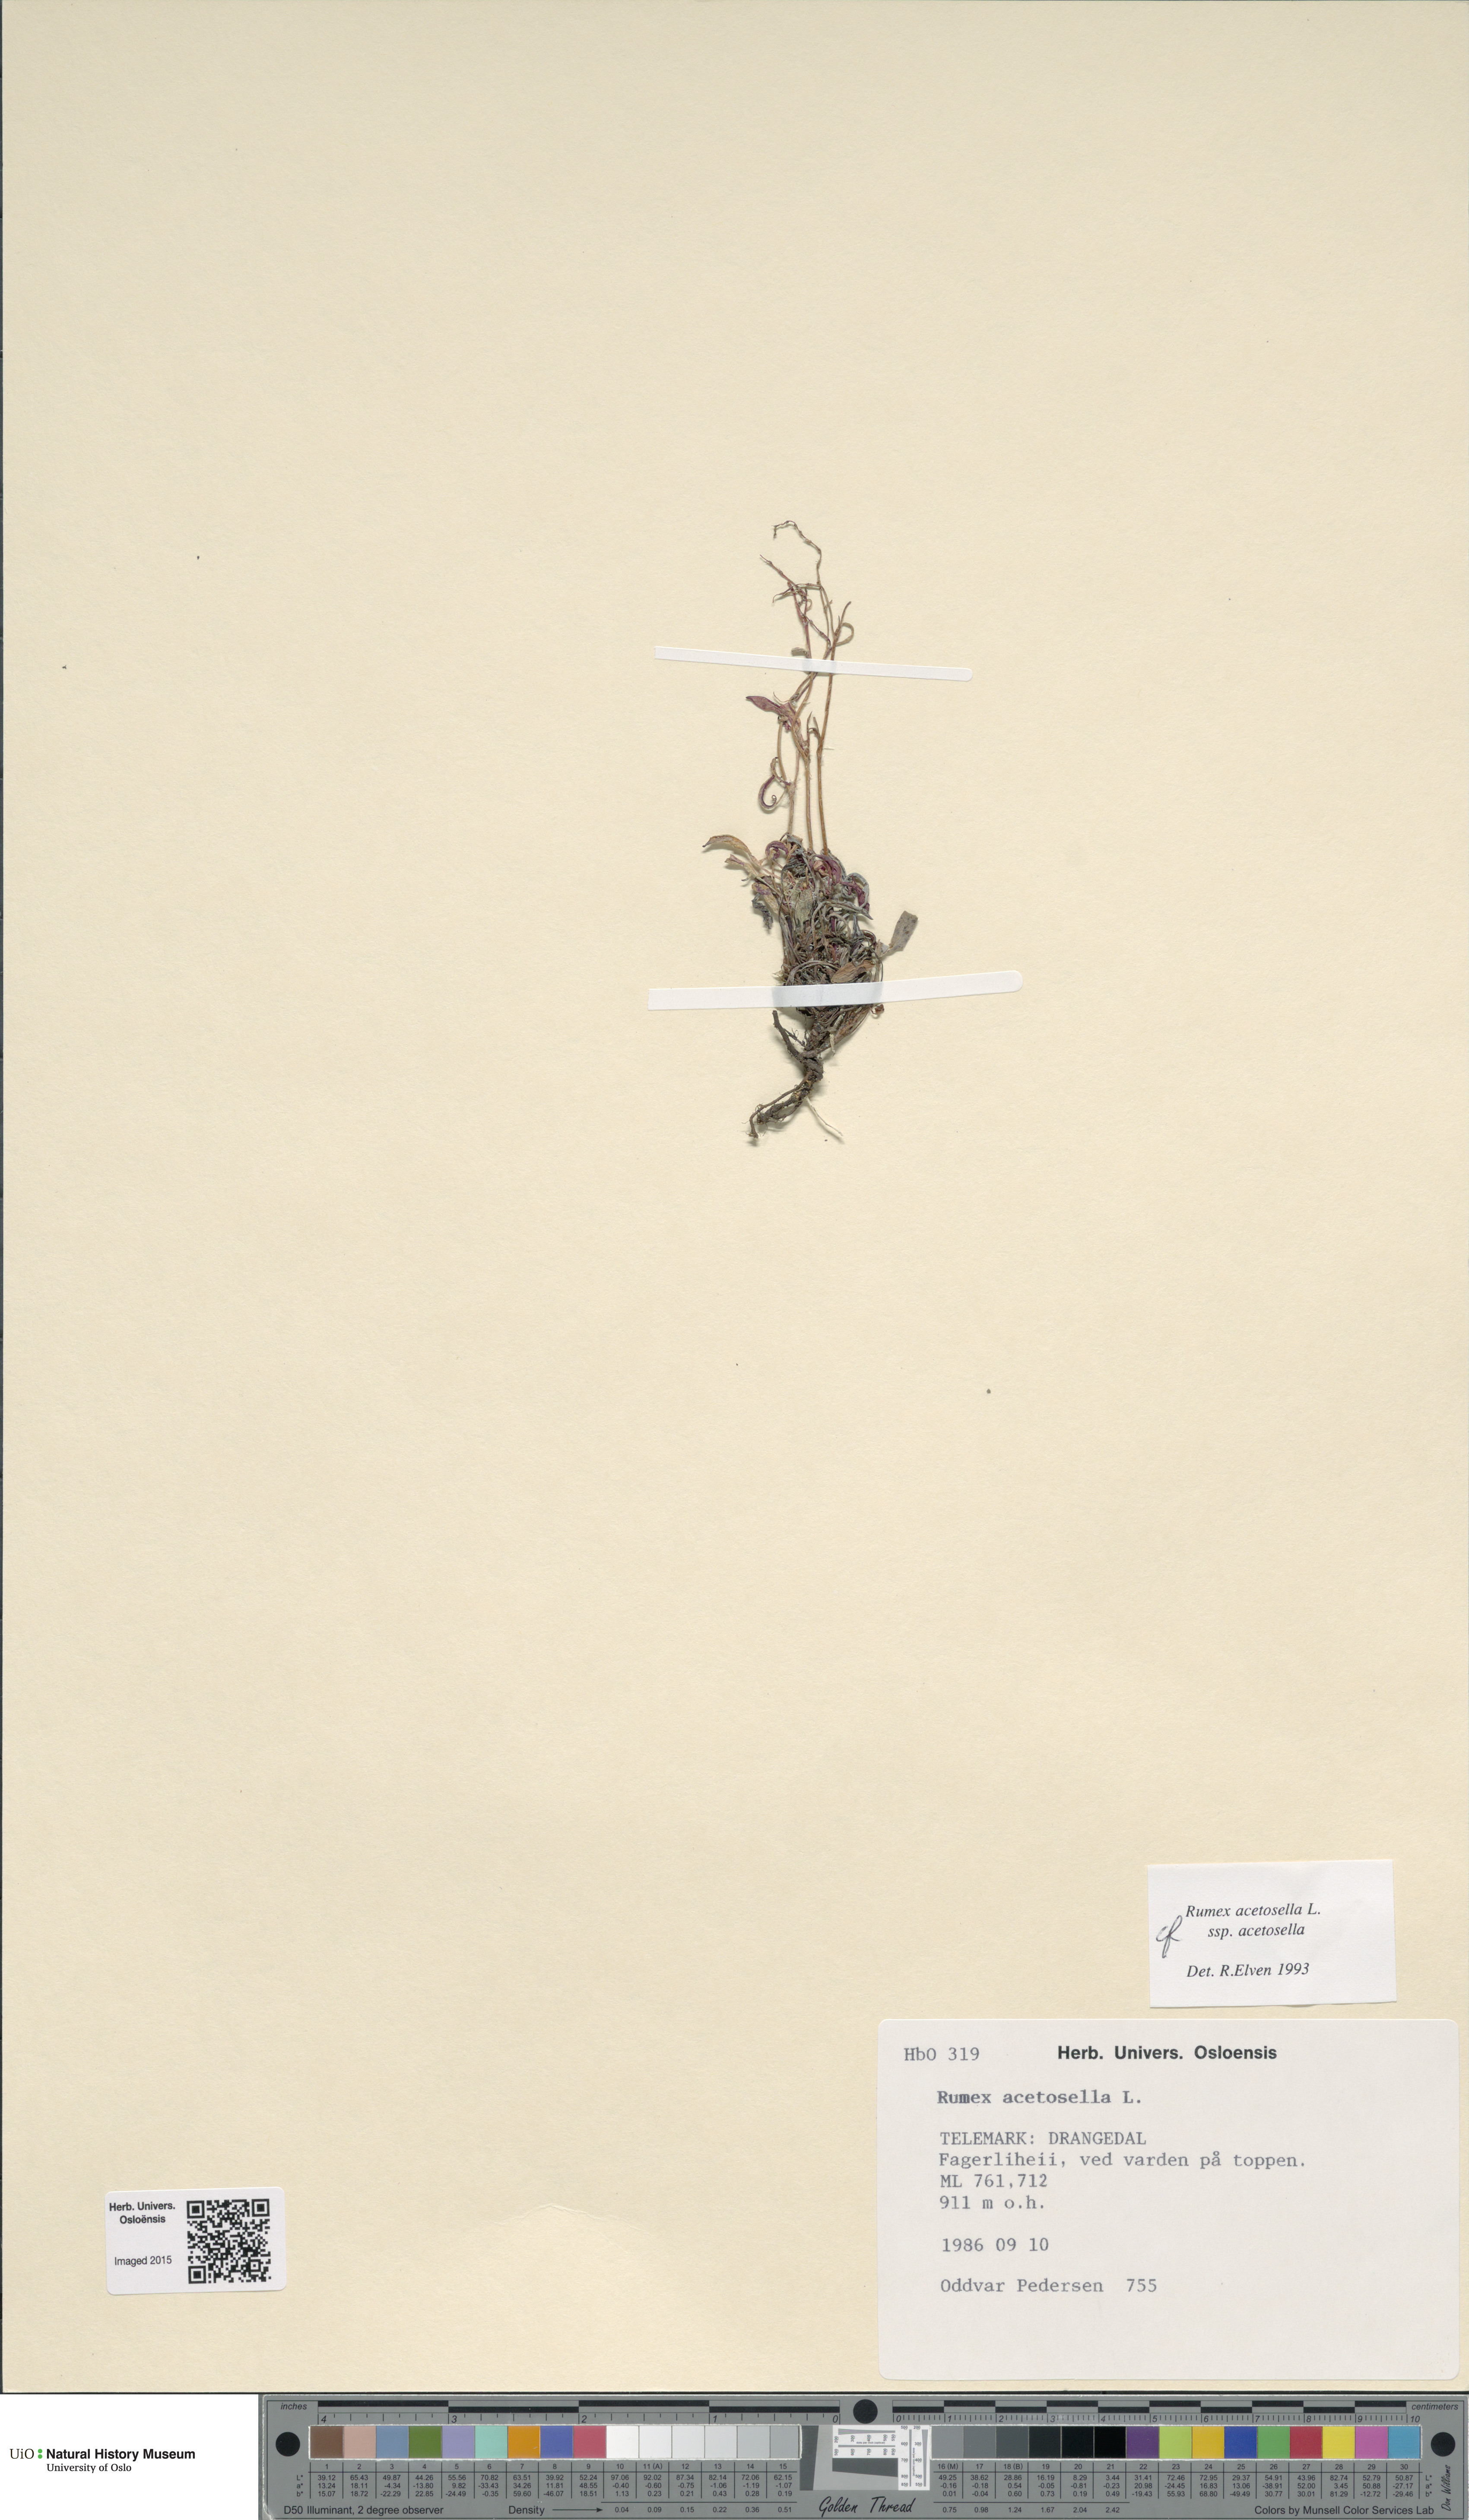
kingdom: Plantae
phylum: Tracheophyta
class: Magnoliopsida
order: Caryophyllales
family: Polygonaceae
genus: Rumex
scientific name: Rumex acetosella
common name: Common sheep sorrel
